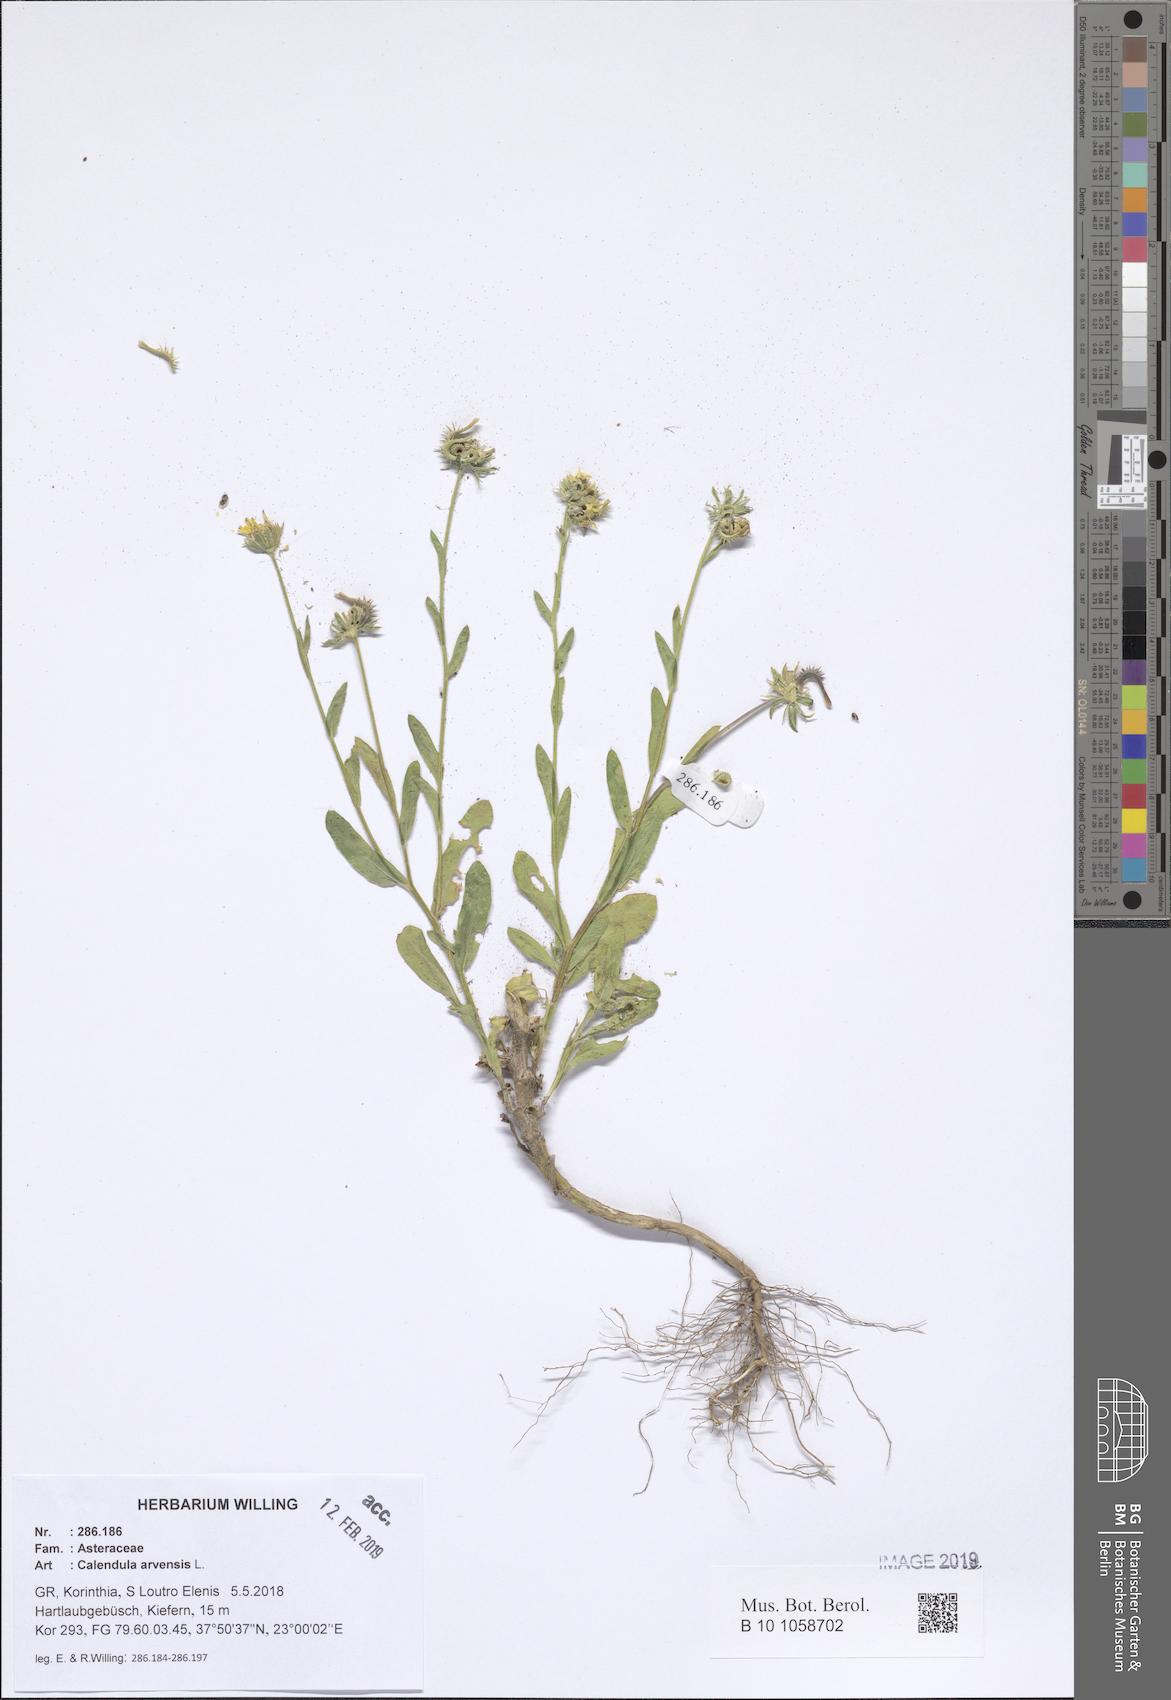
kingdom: Plantae
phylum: Tracheophyta
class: Magnoliopsida
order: Asterales
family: Asteraceae
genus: Calendula
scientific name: Calendula arvensis
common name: Field marigold
